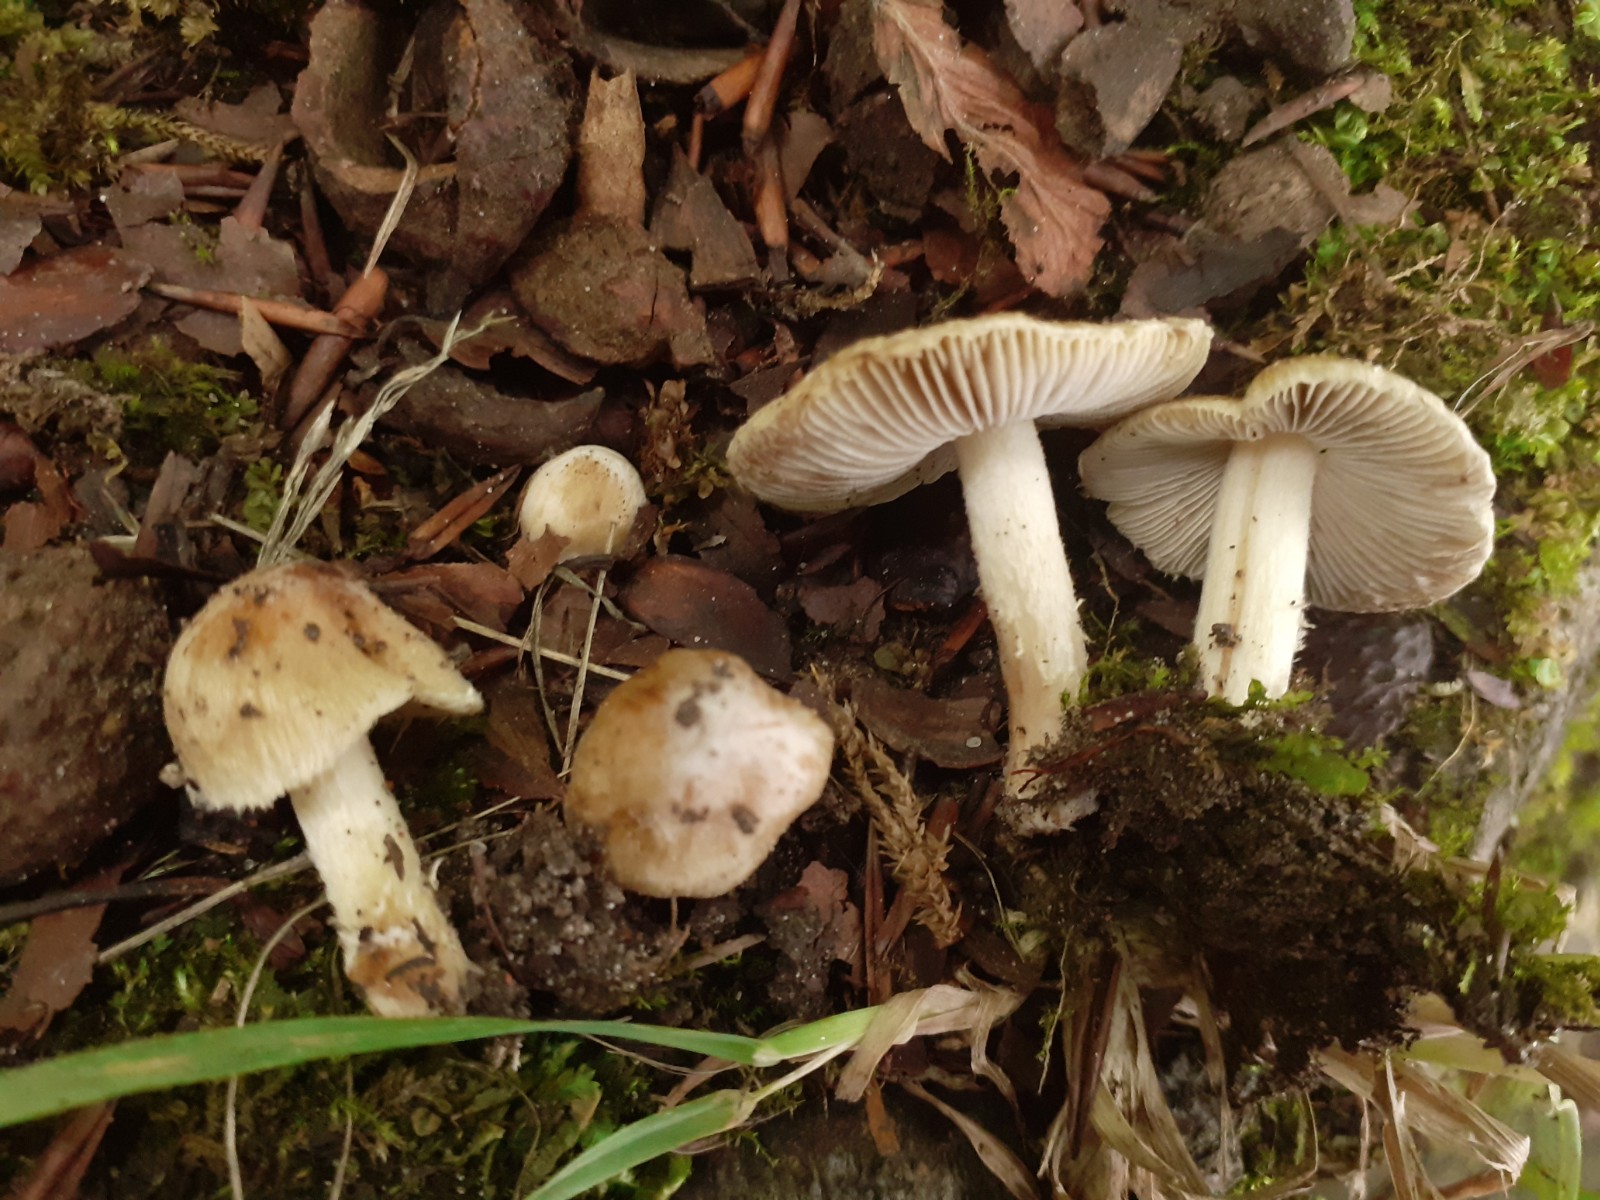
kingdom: Fungi
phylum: Basidiomycota
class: Agaricomycetes
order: Agaricales
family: Inocybaceae
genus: Pseudosperma
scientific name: Pseudosperma aureocitrinum
